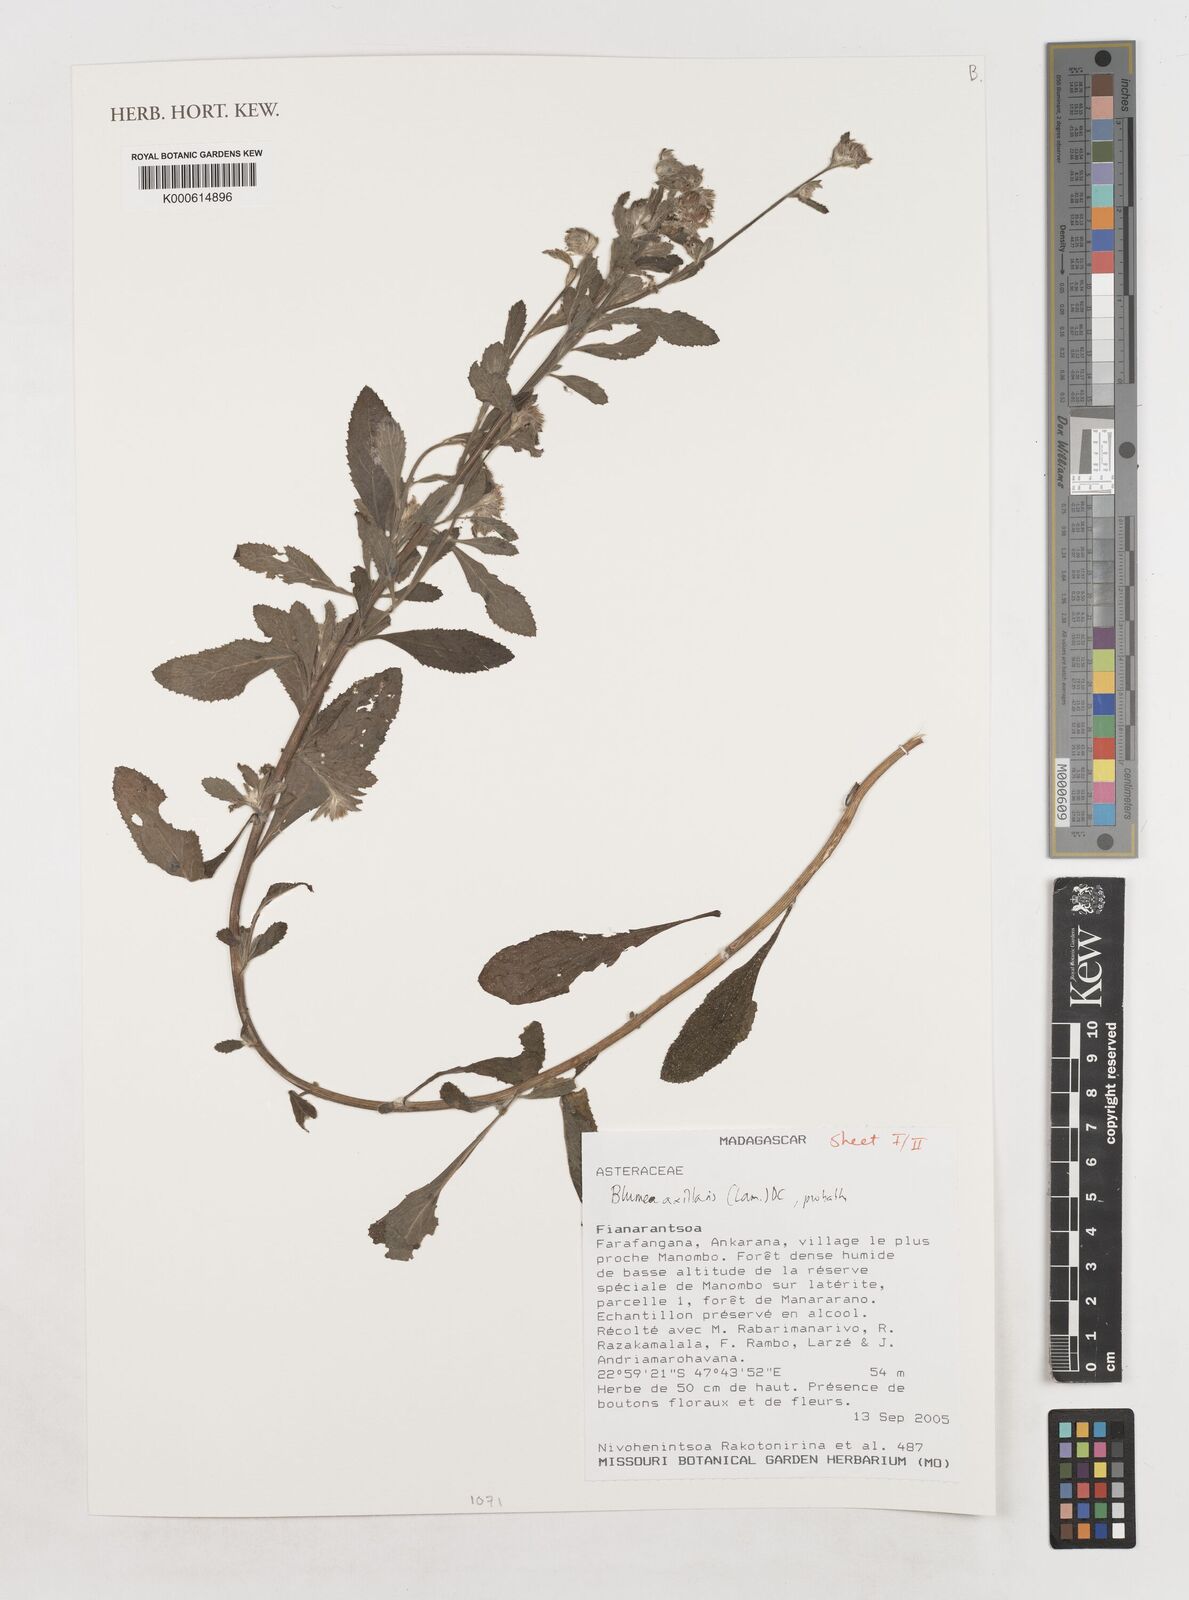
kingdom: Plantae
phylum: Tracheophyta
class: Magnoliopsida
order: Asterales
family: Asteraceae
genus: Blumea
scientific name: Blumea axillaris
